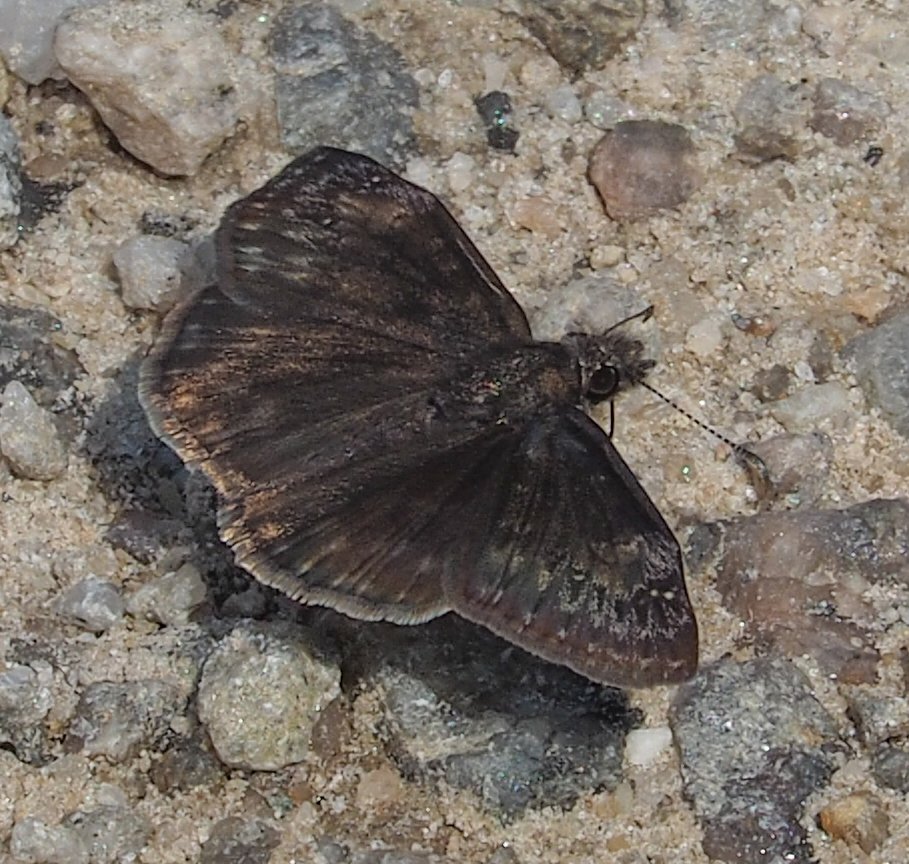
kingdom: Animalia
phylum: Arthropoda
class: Insecta
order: Lepidoptera
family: Hesperiidae
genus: Gesta
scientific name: Gesta
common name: Wild Indigo Duskywing
